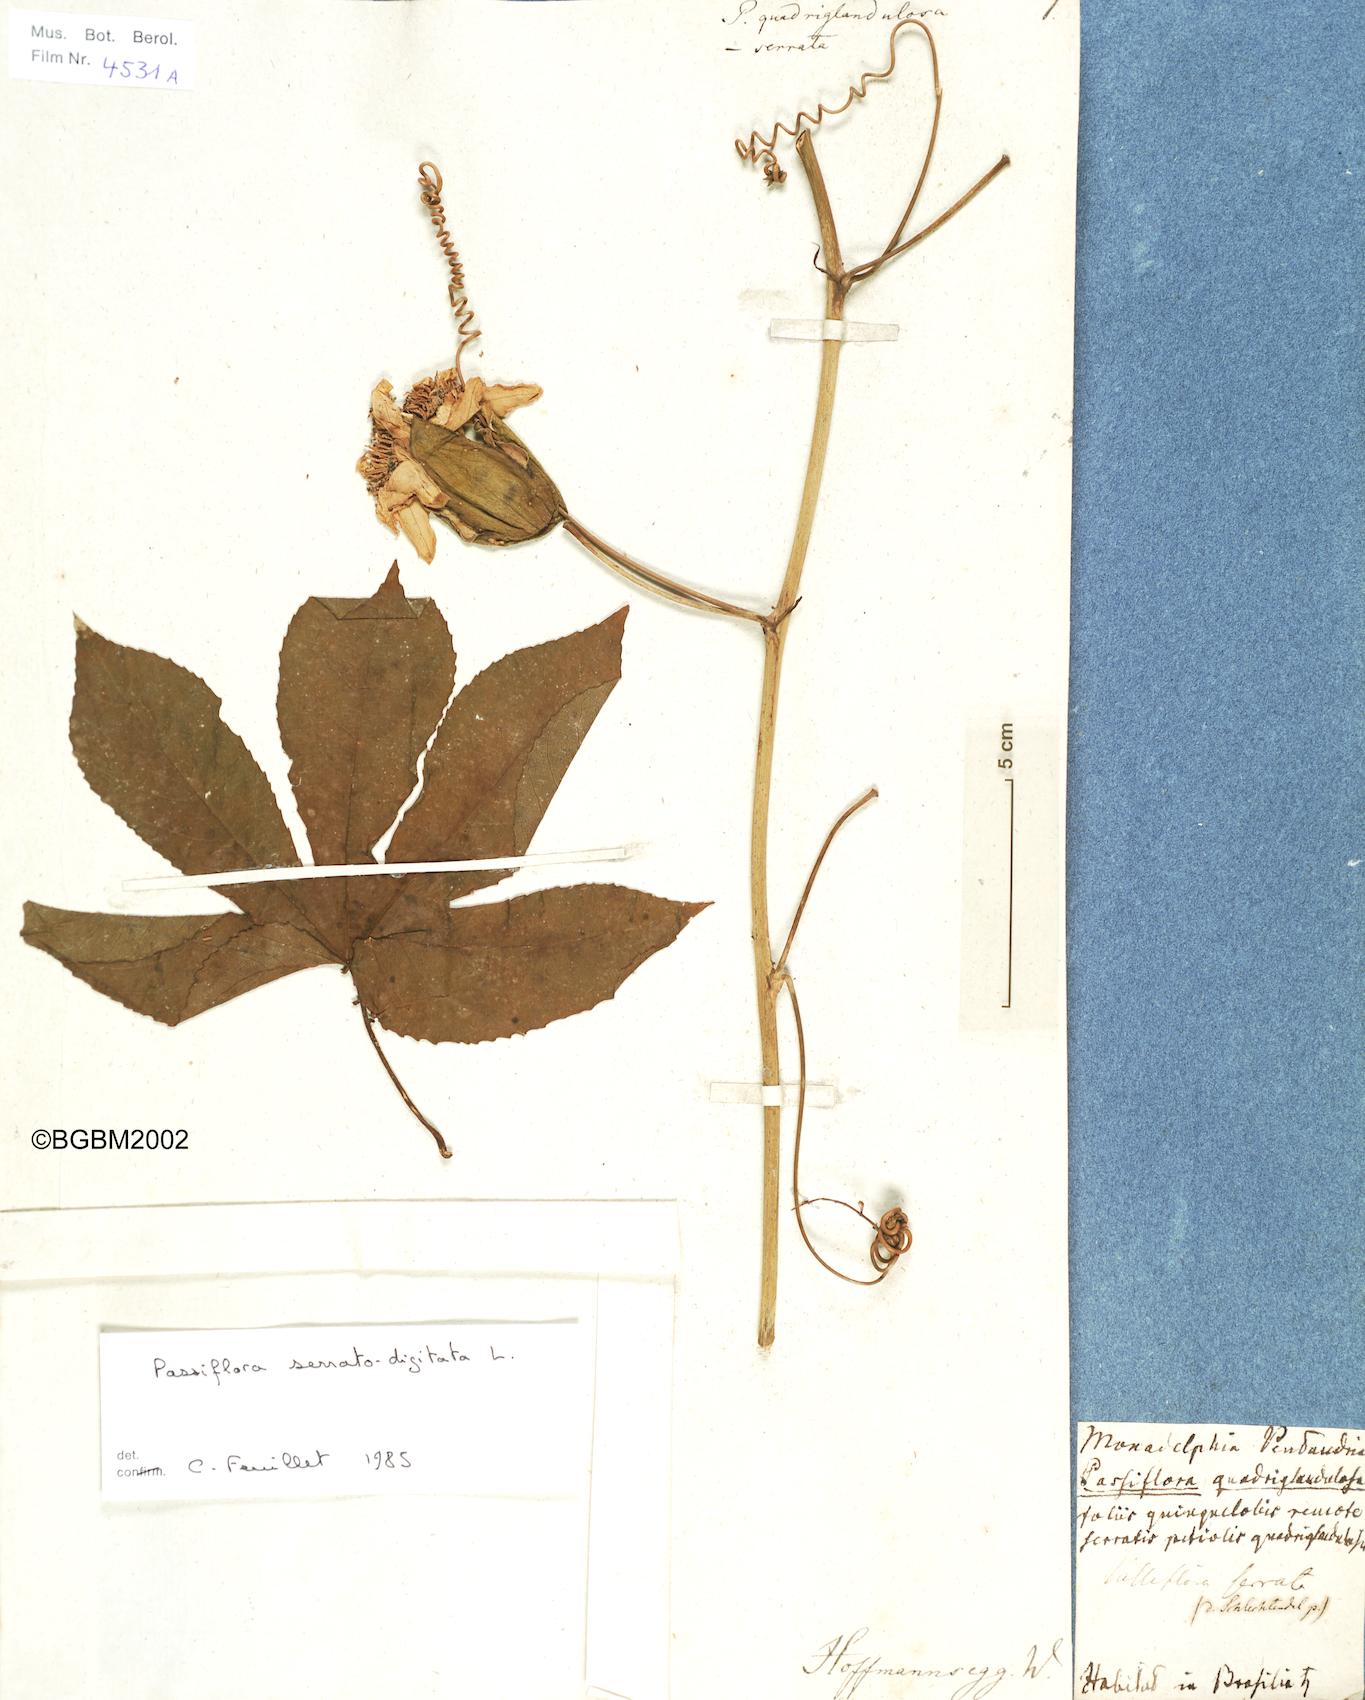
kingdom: Plantae
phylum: Tracheophyta
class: Magnoliopsida
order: Malpighiales
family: Passifloraceae
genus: Passiflora
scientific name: Passiflora quadriglandulosa
